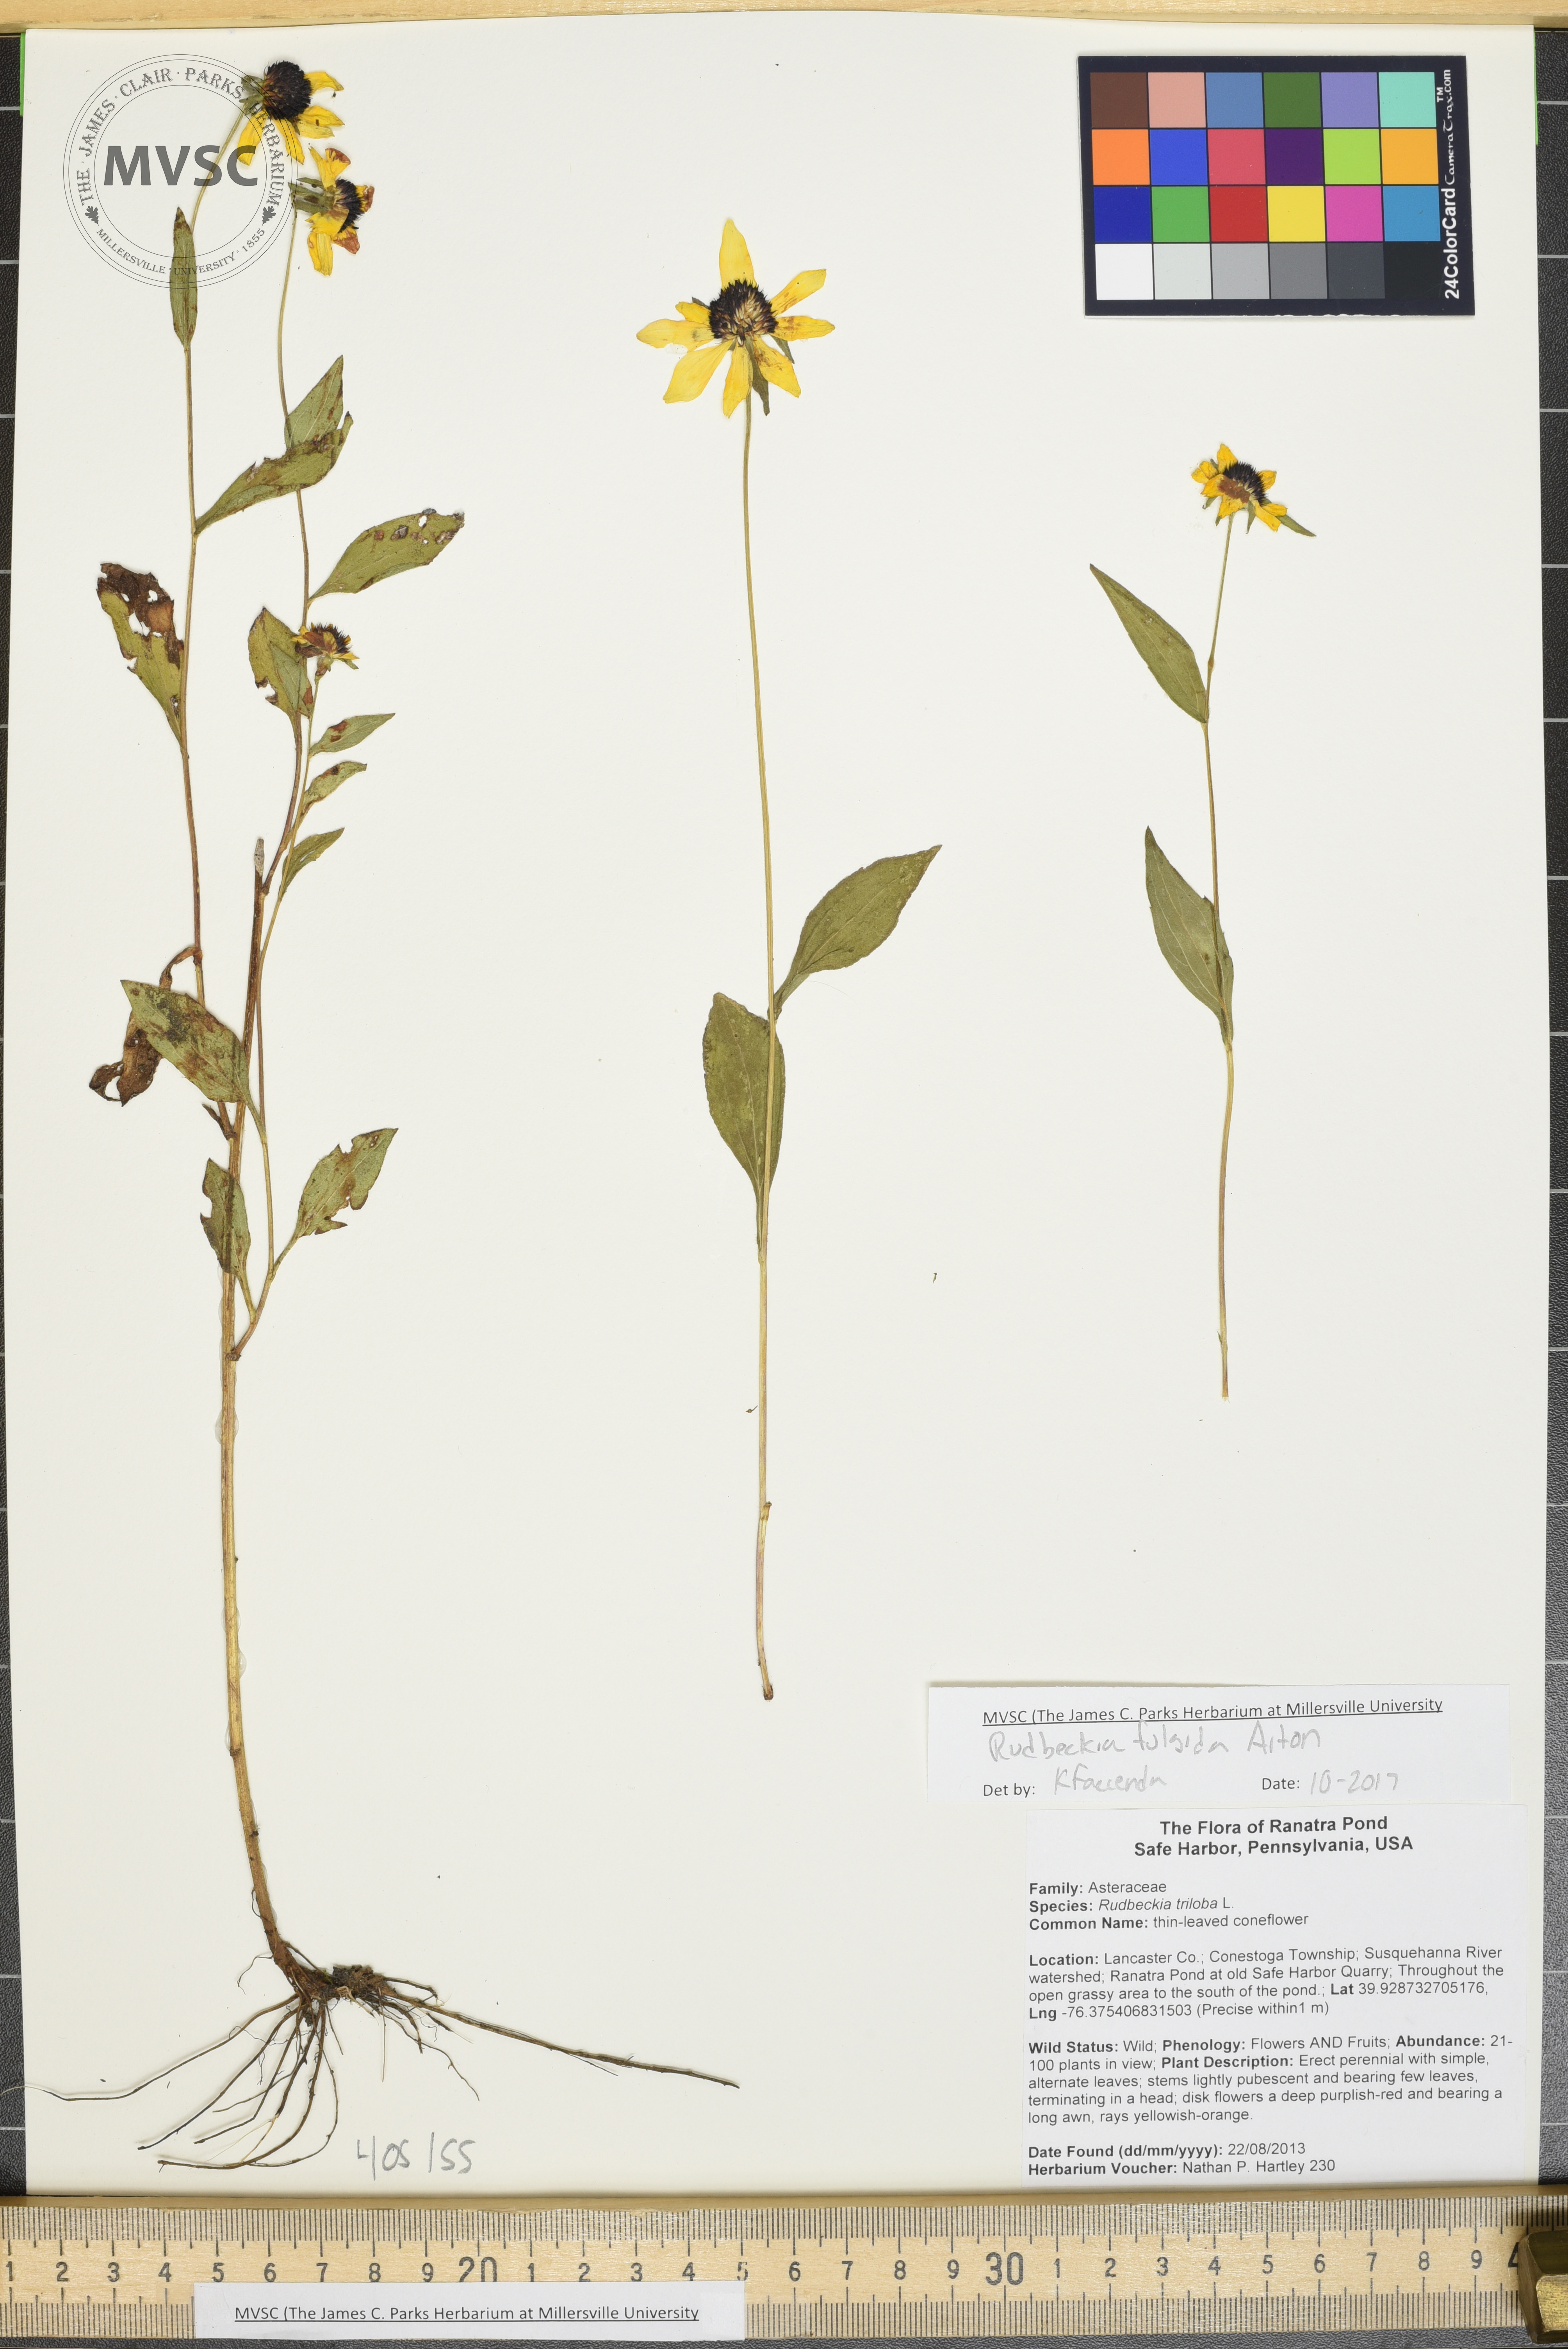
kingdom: Plantae
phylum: Tracheophyta
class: Magnoliopsida
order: Asterales
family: Asteraceae
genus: Rudbeckia
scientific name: Rudbeckia fulgida
